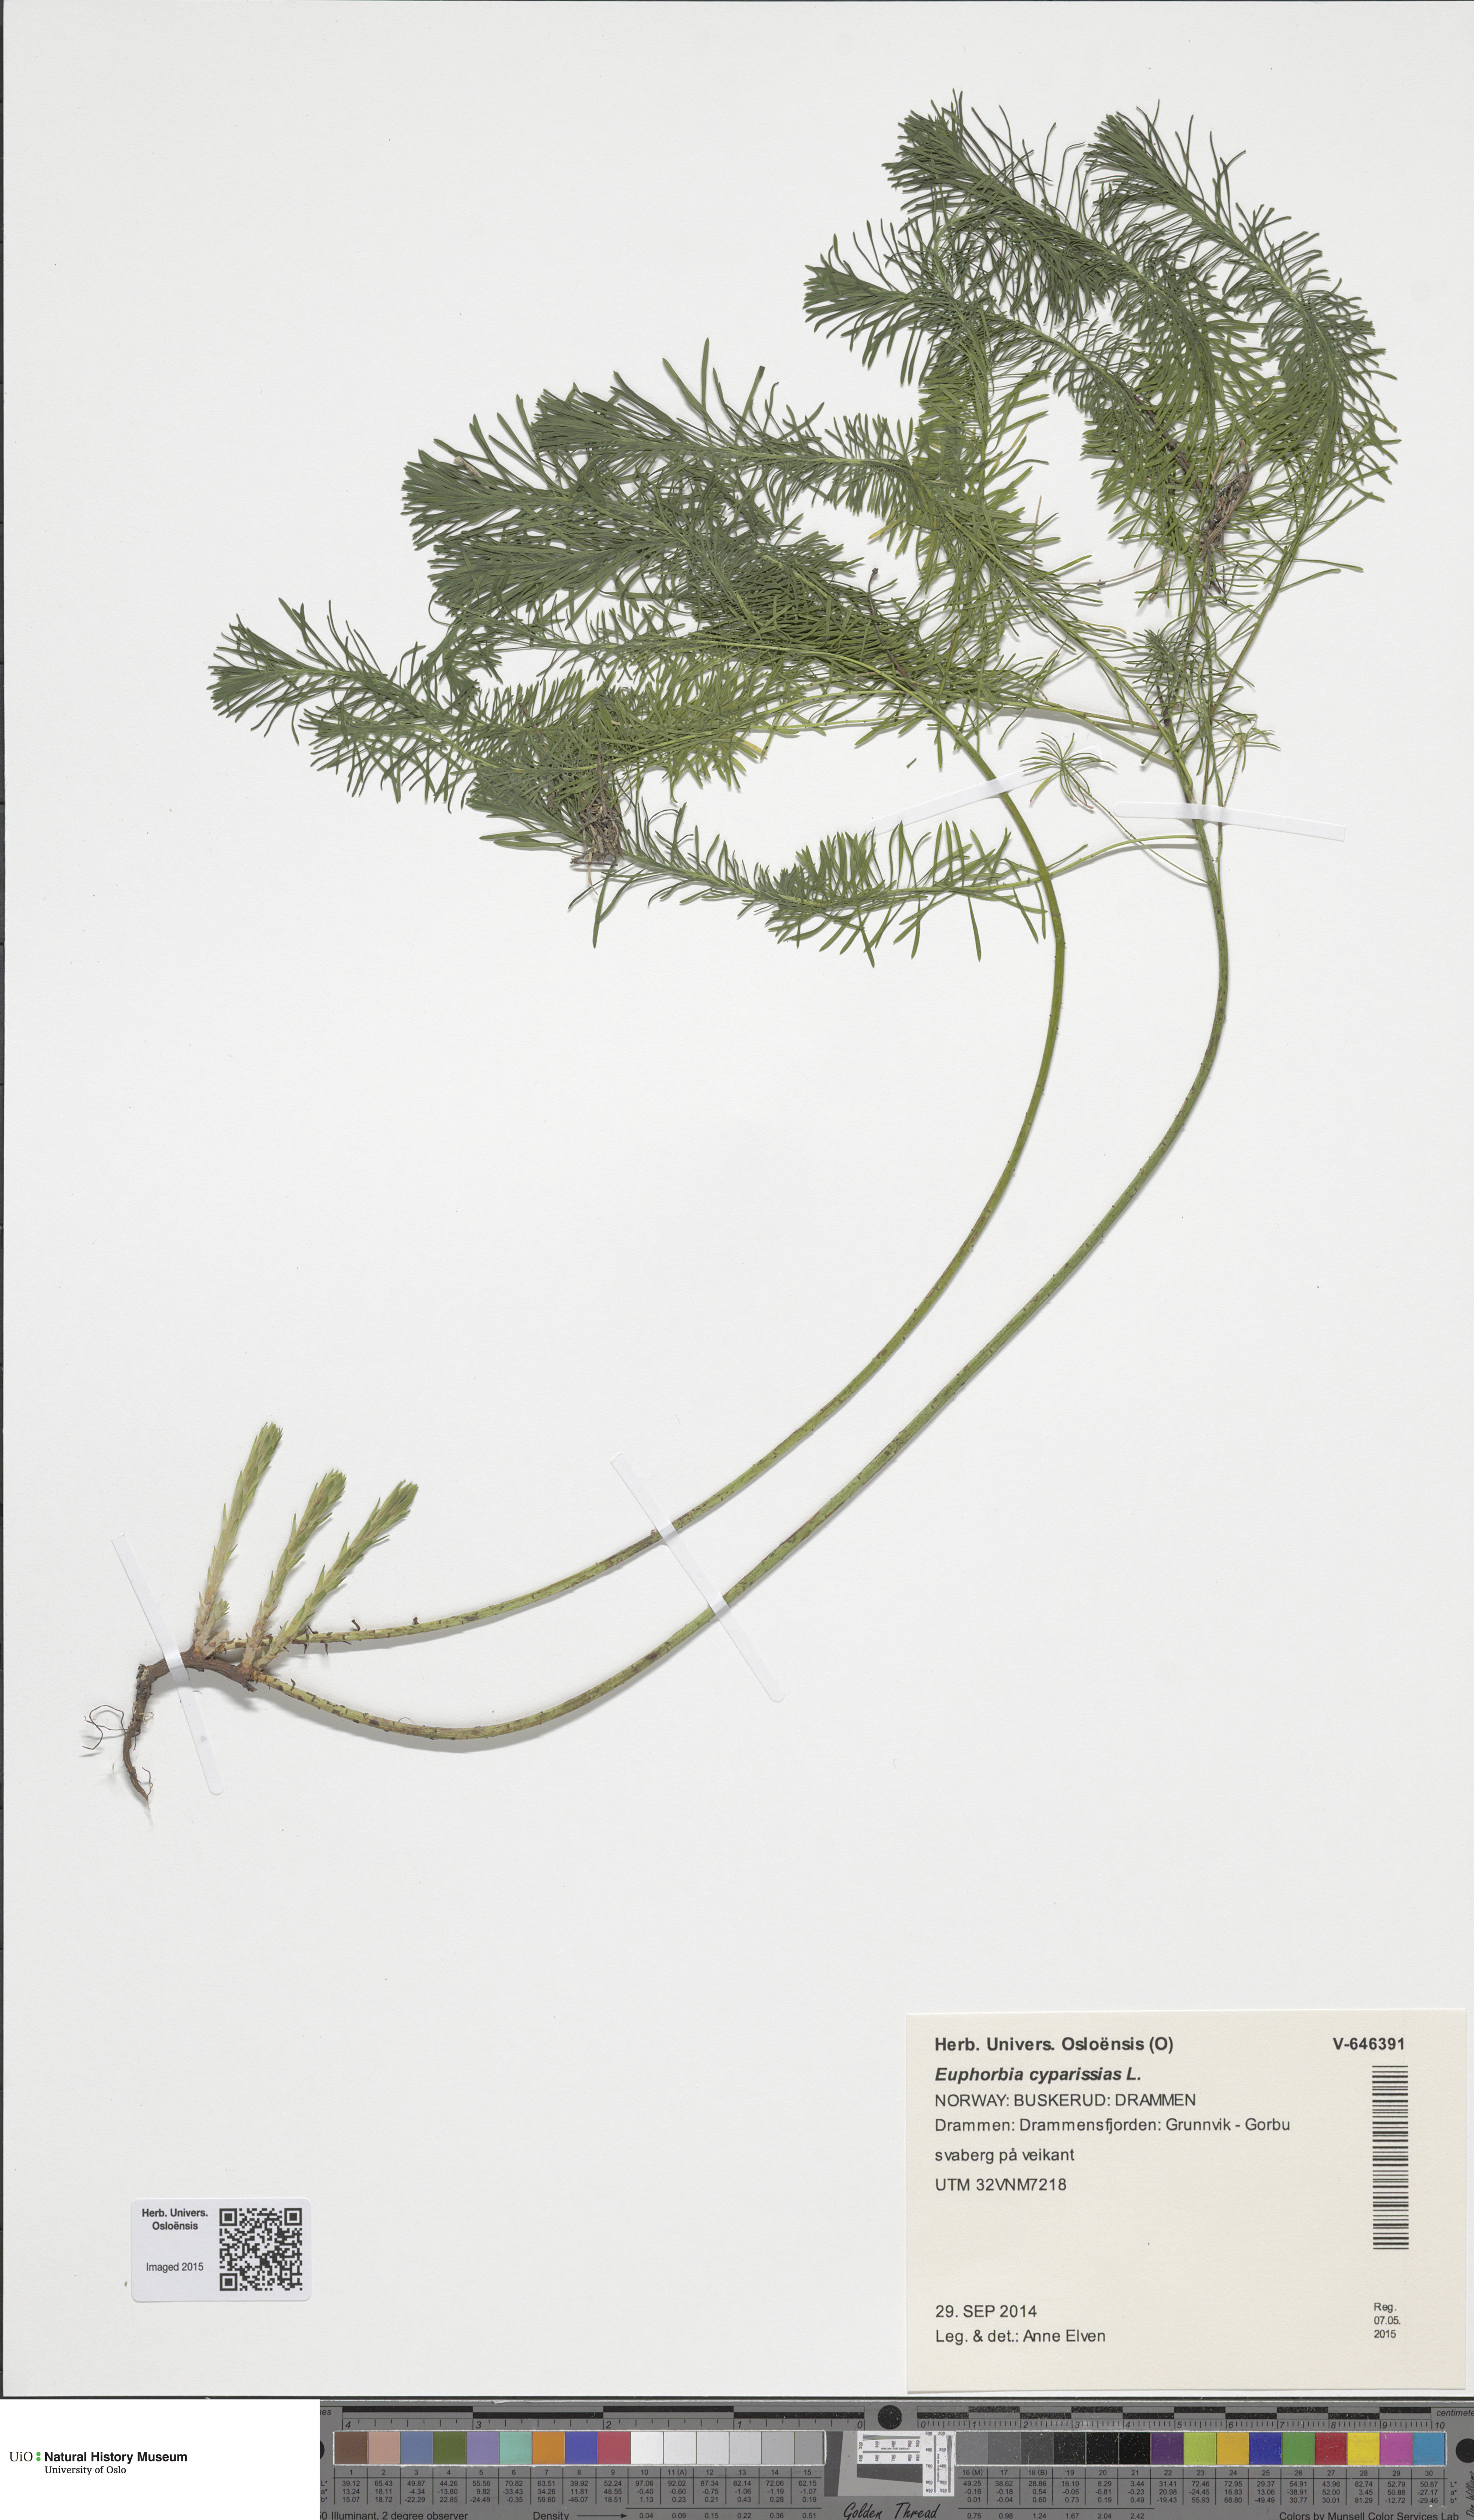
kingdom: Plantae
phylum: Tracheophyta
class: Magnoliopsida
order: Malpighiales
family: Euphorbiaceae
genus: Euphorbia
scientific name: Euphorbia cyparissias
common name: Cypress spurge
